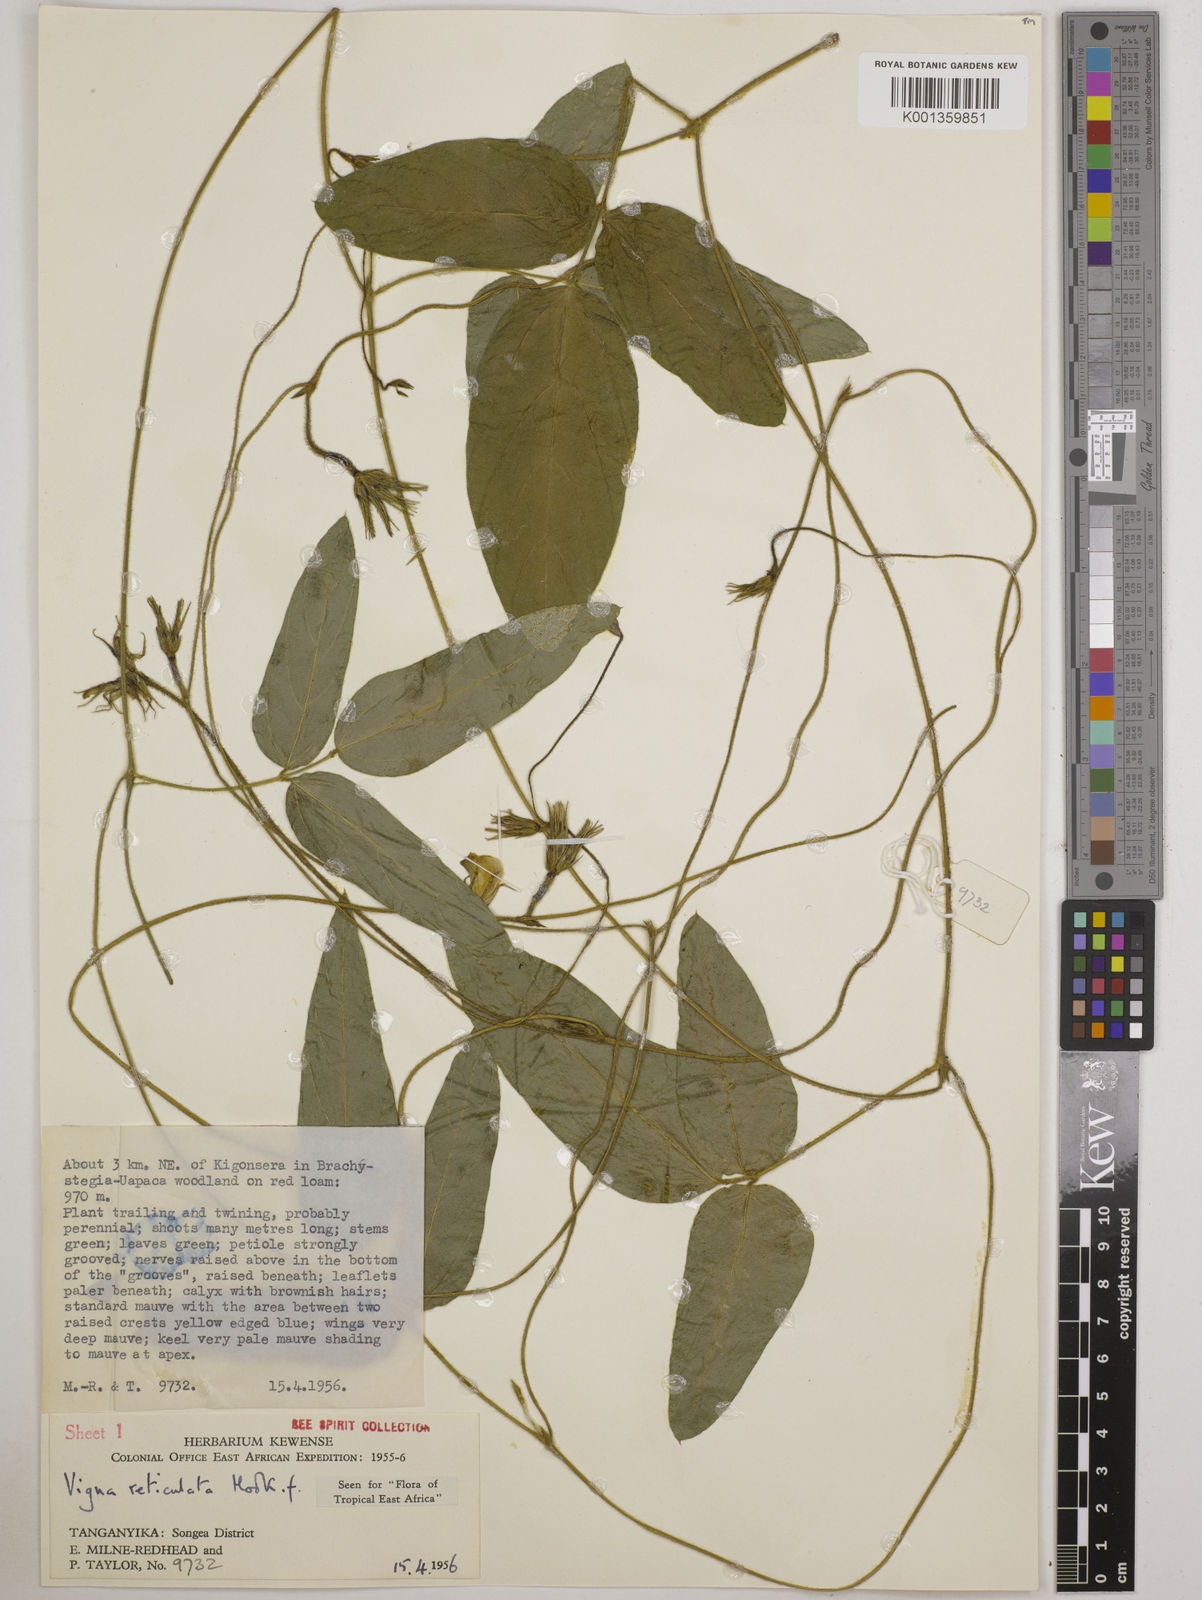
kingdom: Plantae
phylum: Tracheophyta
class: Magnoliopsida
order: Fabales
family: Fabaceae
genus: Vigna
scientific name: Vigna reticulata
